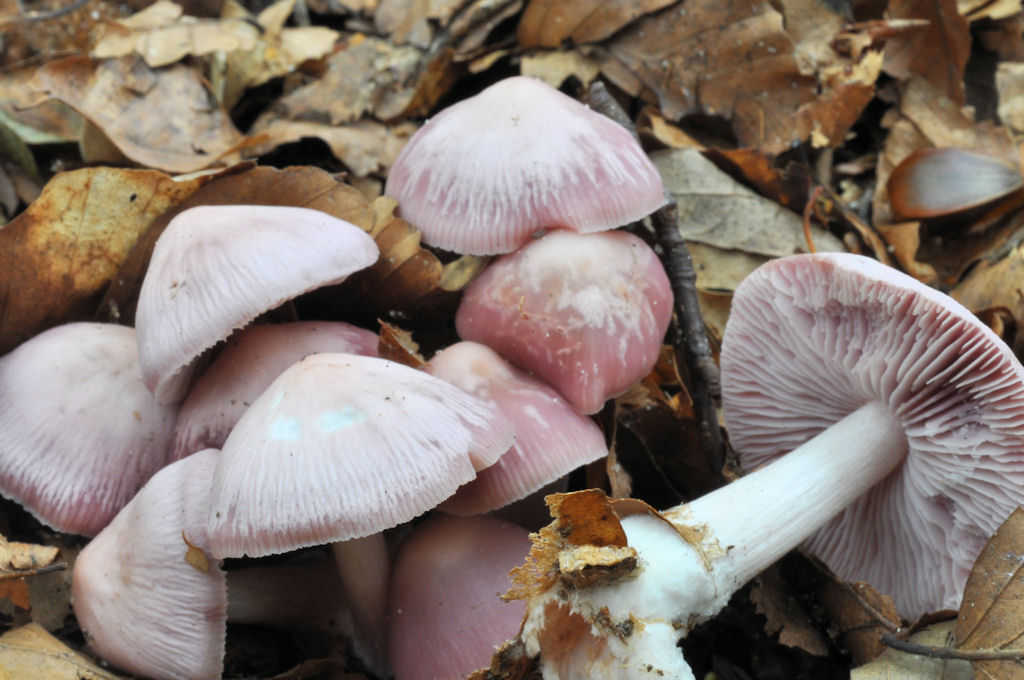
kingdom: Fungi
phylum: Basidiomycota
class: Agaricomycetes
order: Agaricales
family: Mycenaceae
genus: Mycena
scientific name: Mycena rosea
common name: rosa huesvamp
